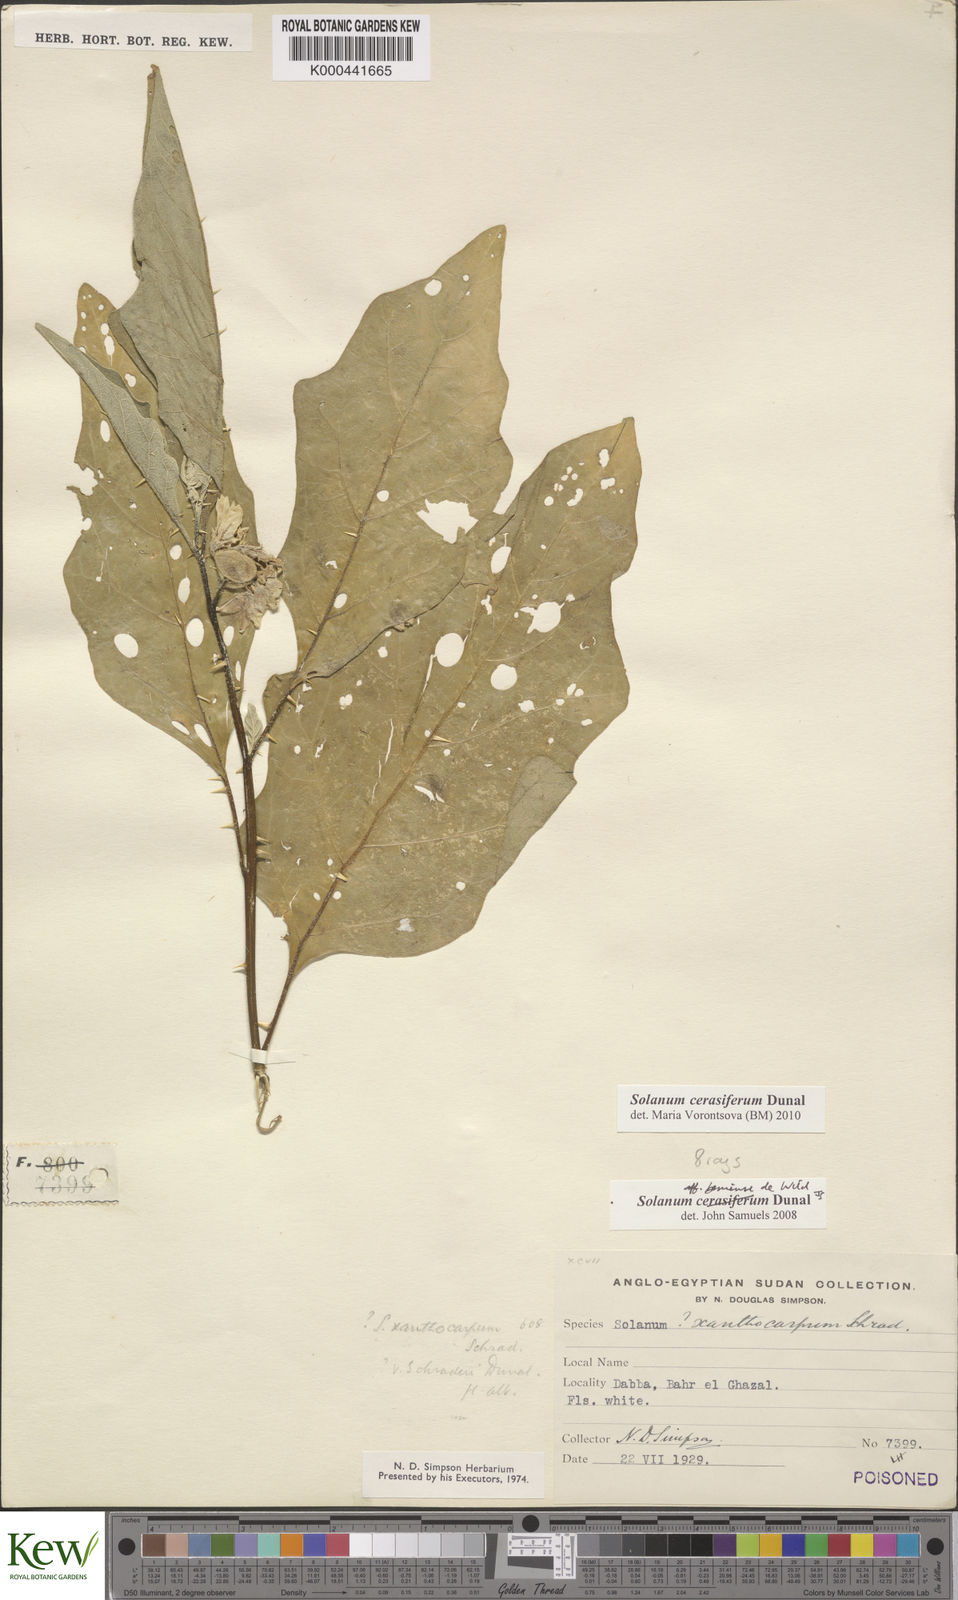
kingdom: Plantae
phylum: Tracheophyta
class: Magnoliopsida
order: Solanales
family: Solanaceae
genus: Solanum
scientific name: Solanum cerasiferum
